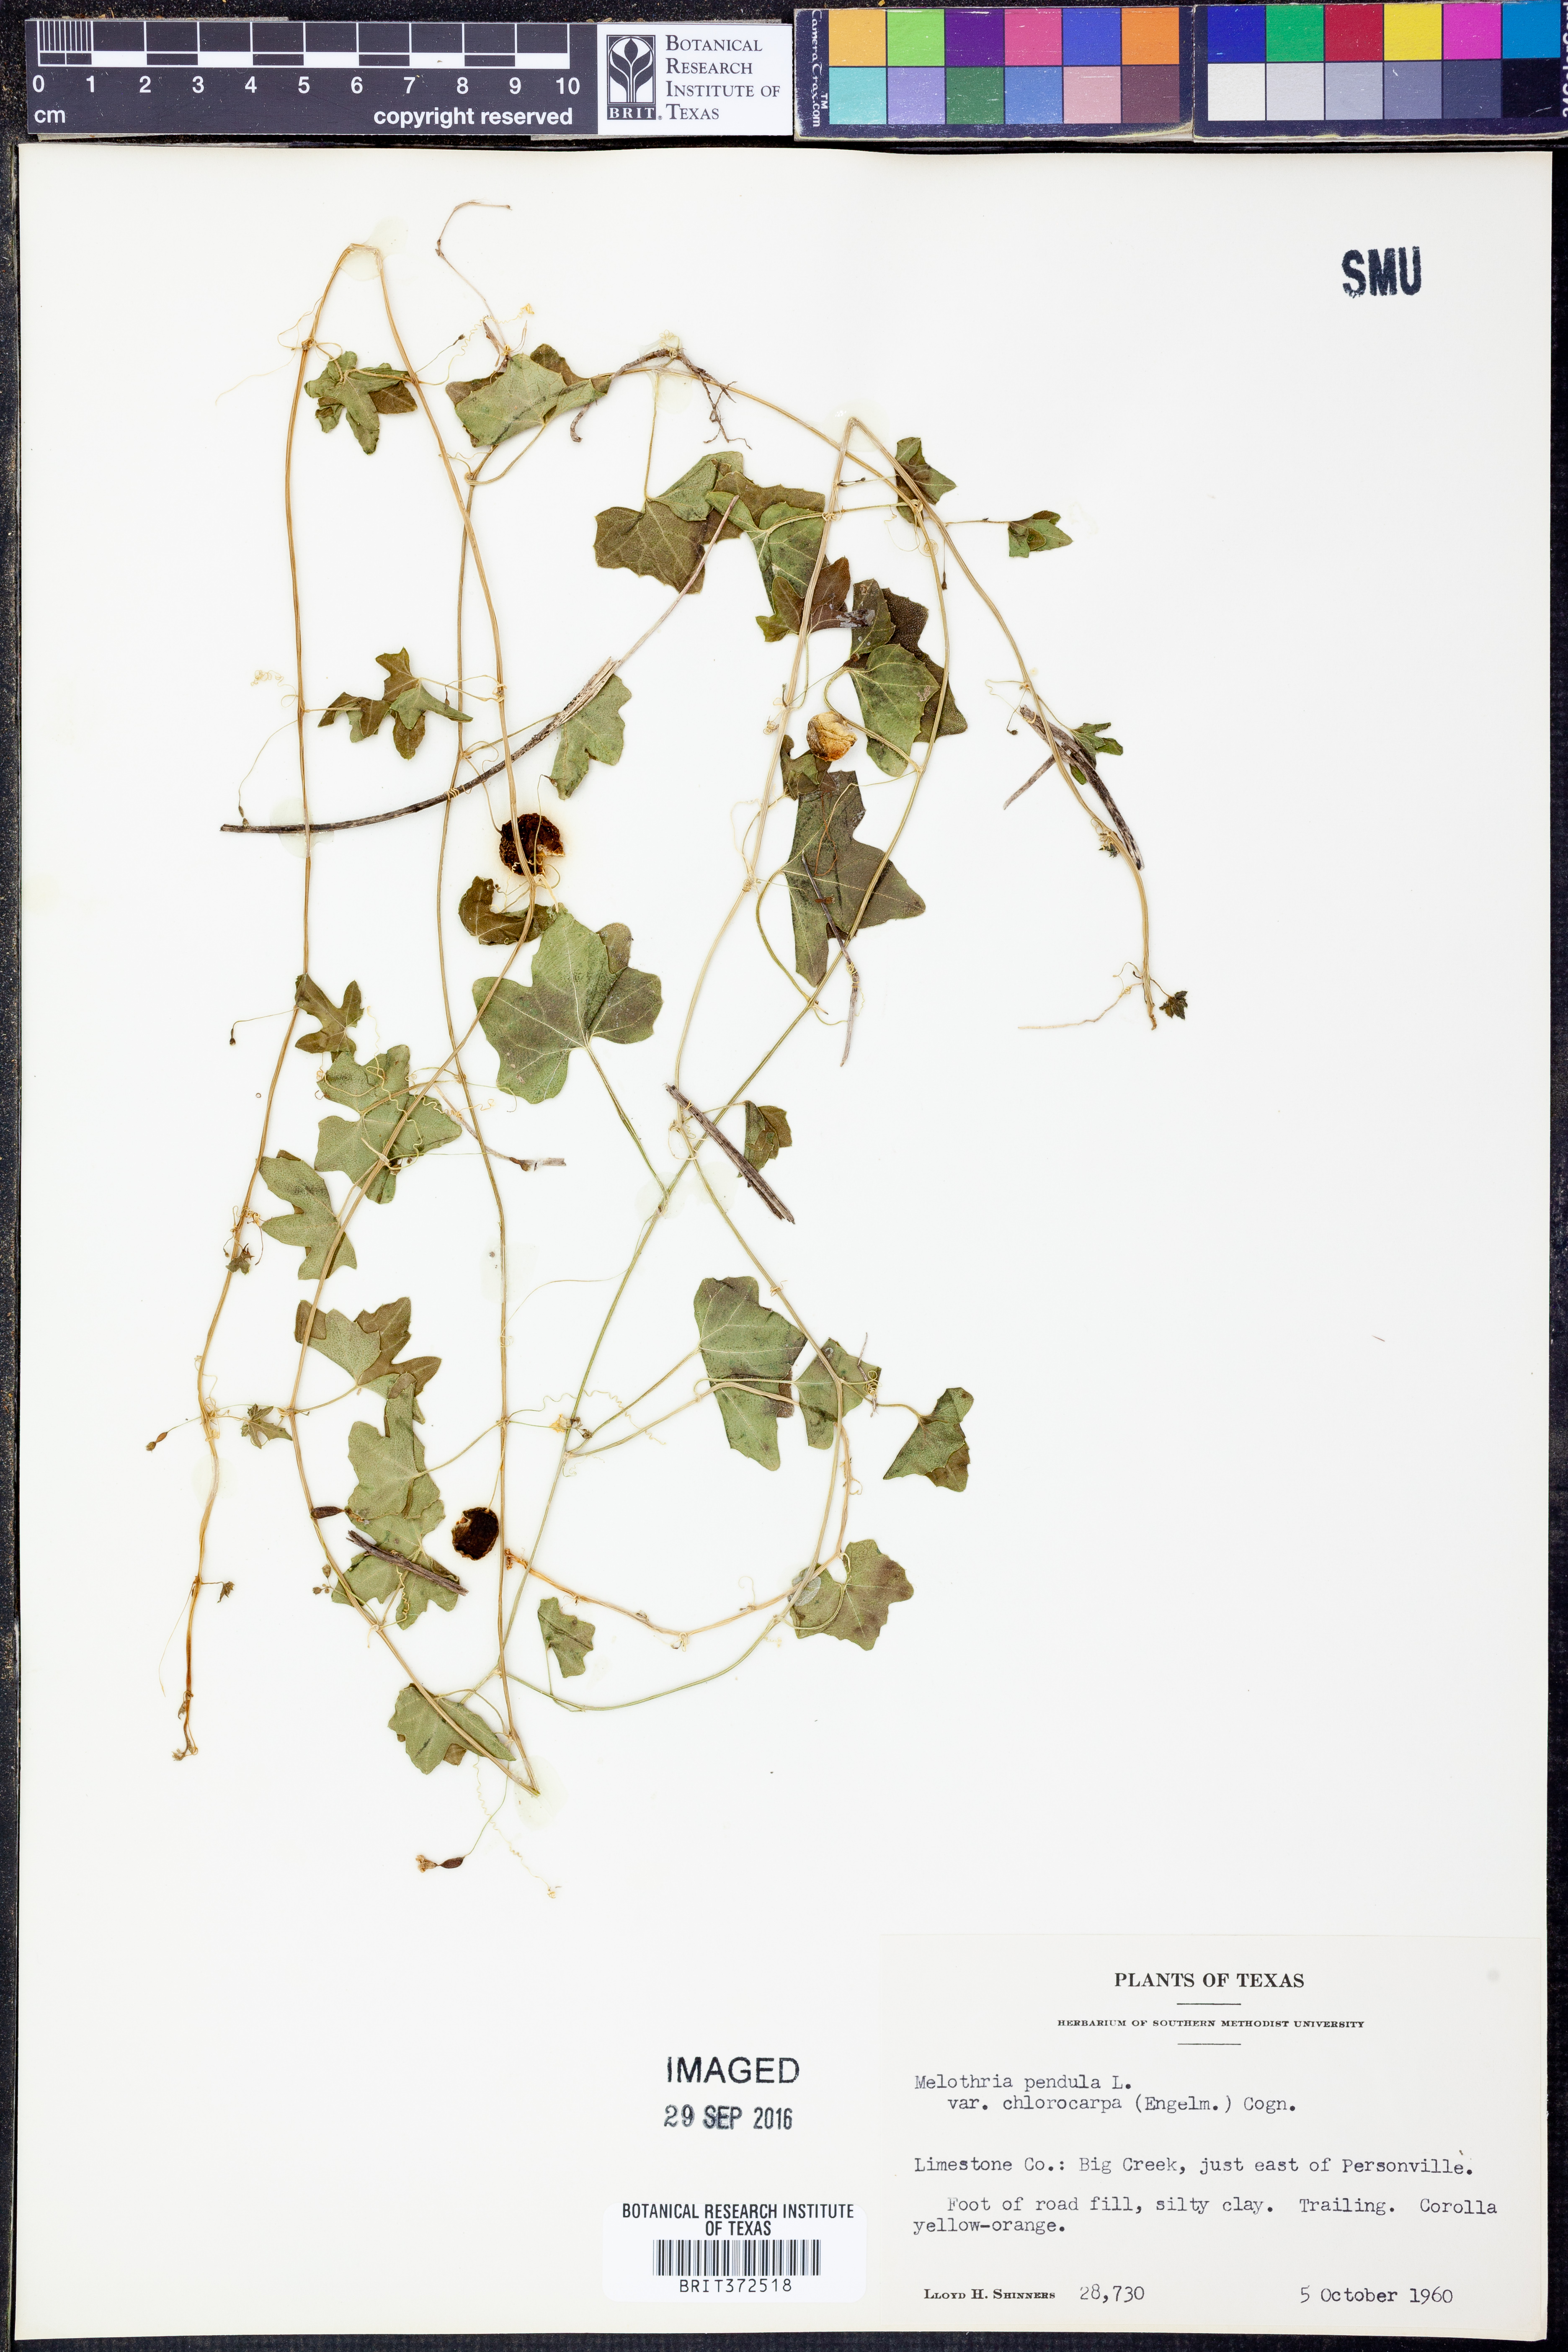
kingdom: Plantae
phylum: Tracheophyta
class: Magnoliopsida
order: Cucurbitales
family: Cucurbitaceae
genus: Melothria
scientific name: Melothria pendula
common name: Creeping-cucumber
